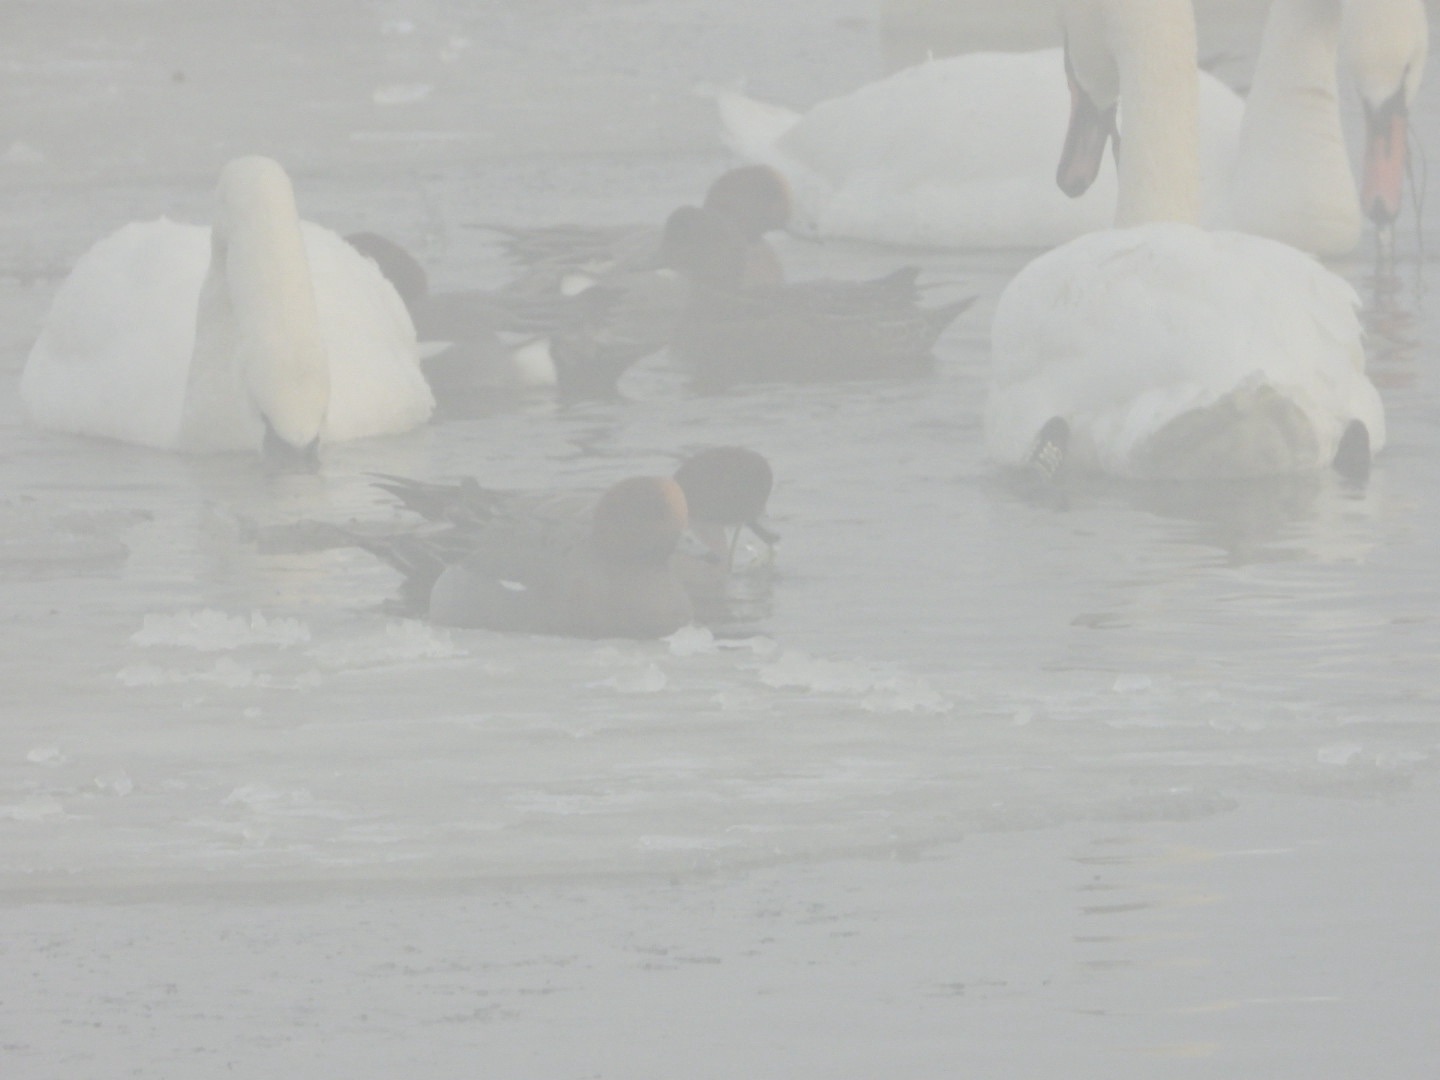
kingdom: Animalia
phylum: Chordata
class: Aves
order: Anseriformes
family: Anatidae
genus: Mareca
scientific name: Mareca penelope
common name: Pibeand
